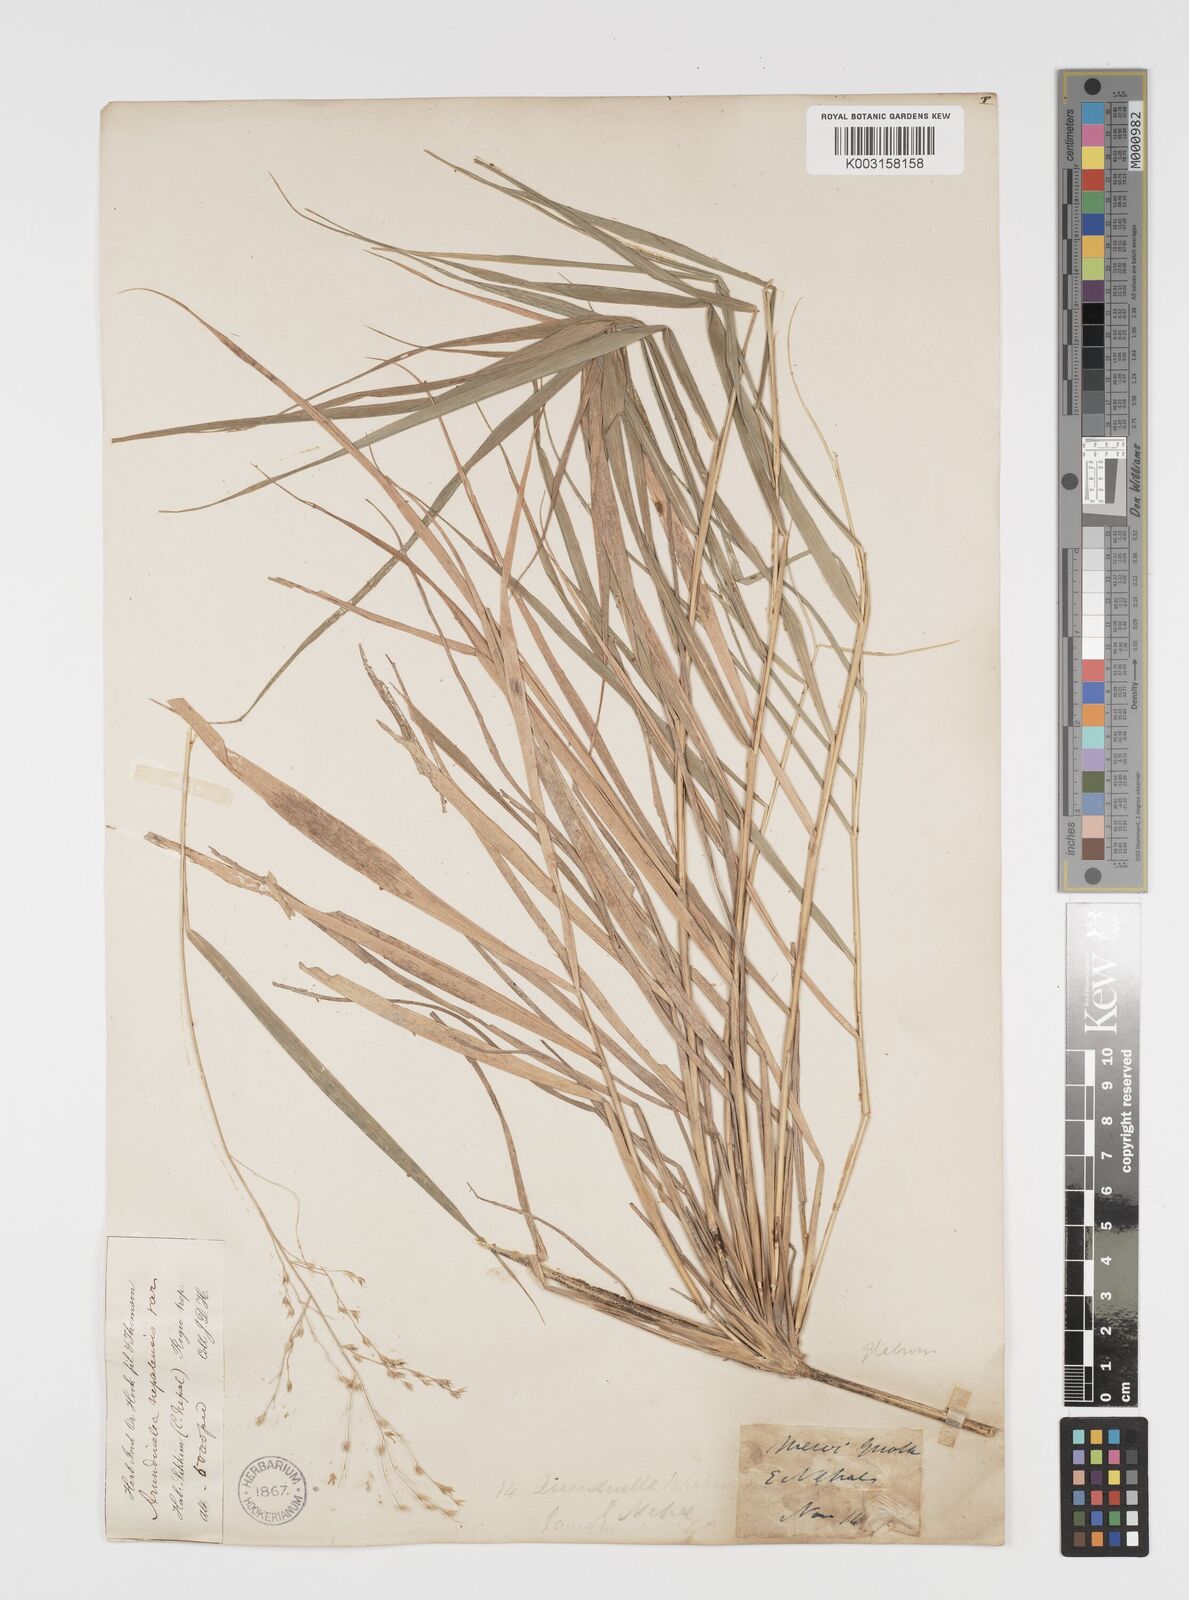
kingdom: Plantae
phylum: Tracheophyta
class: Liliopsida
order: Poales
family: Poaceae
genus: Arundinella
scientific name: Arundinella nepalensis
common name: Reed grass
